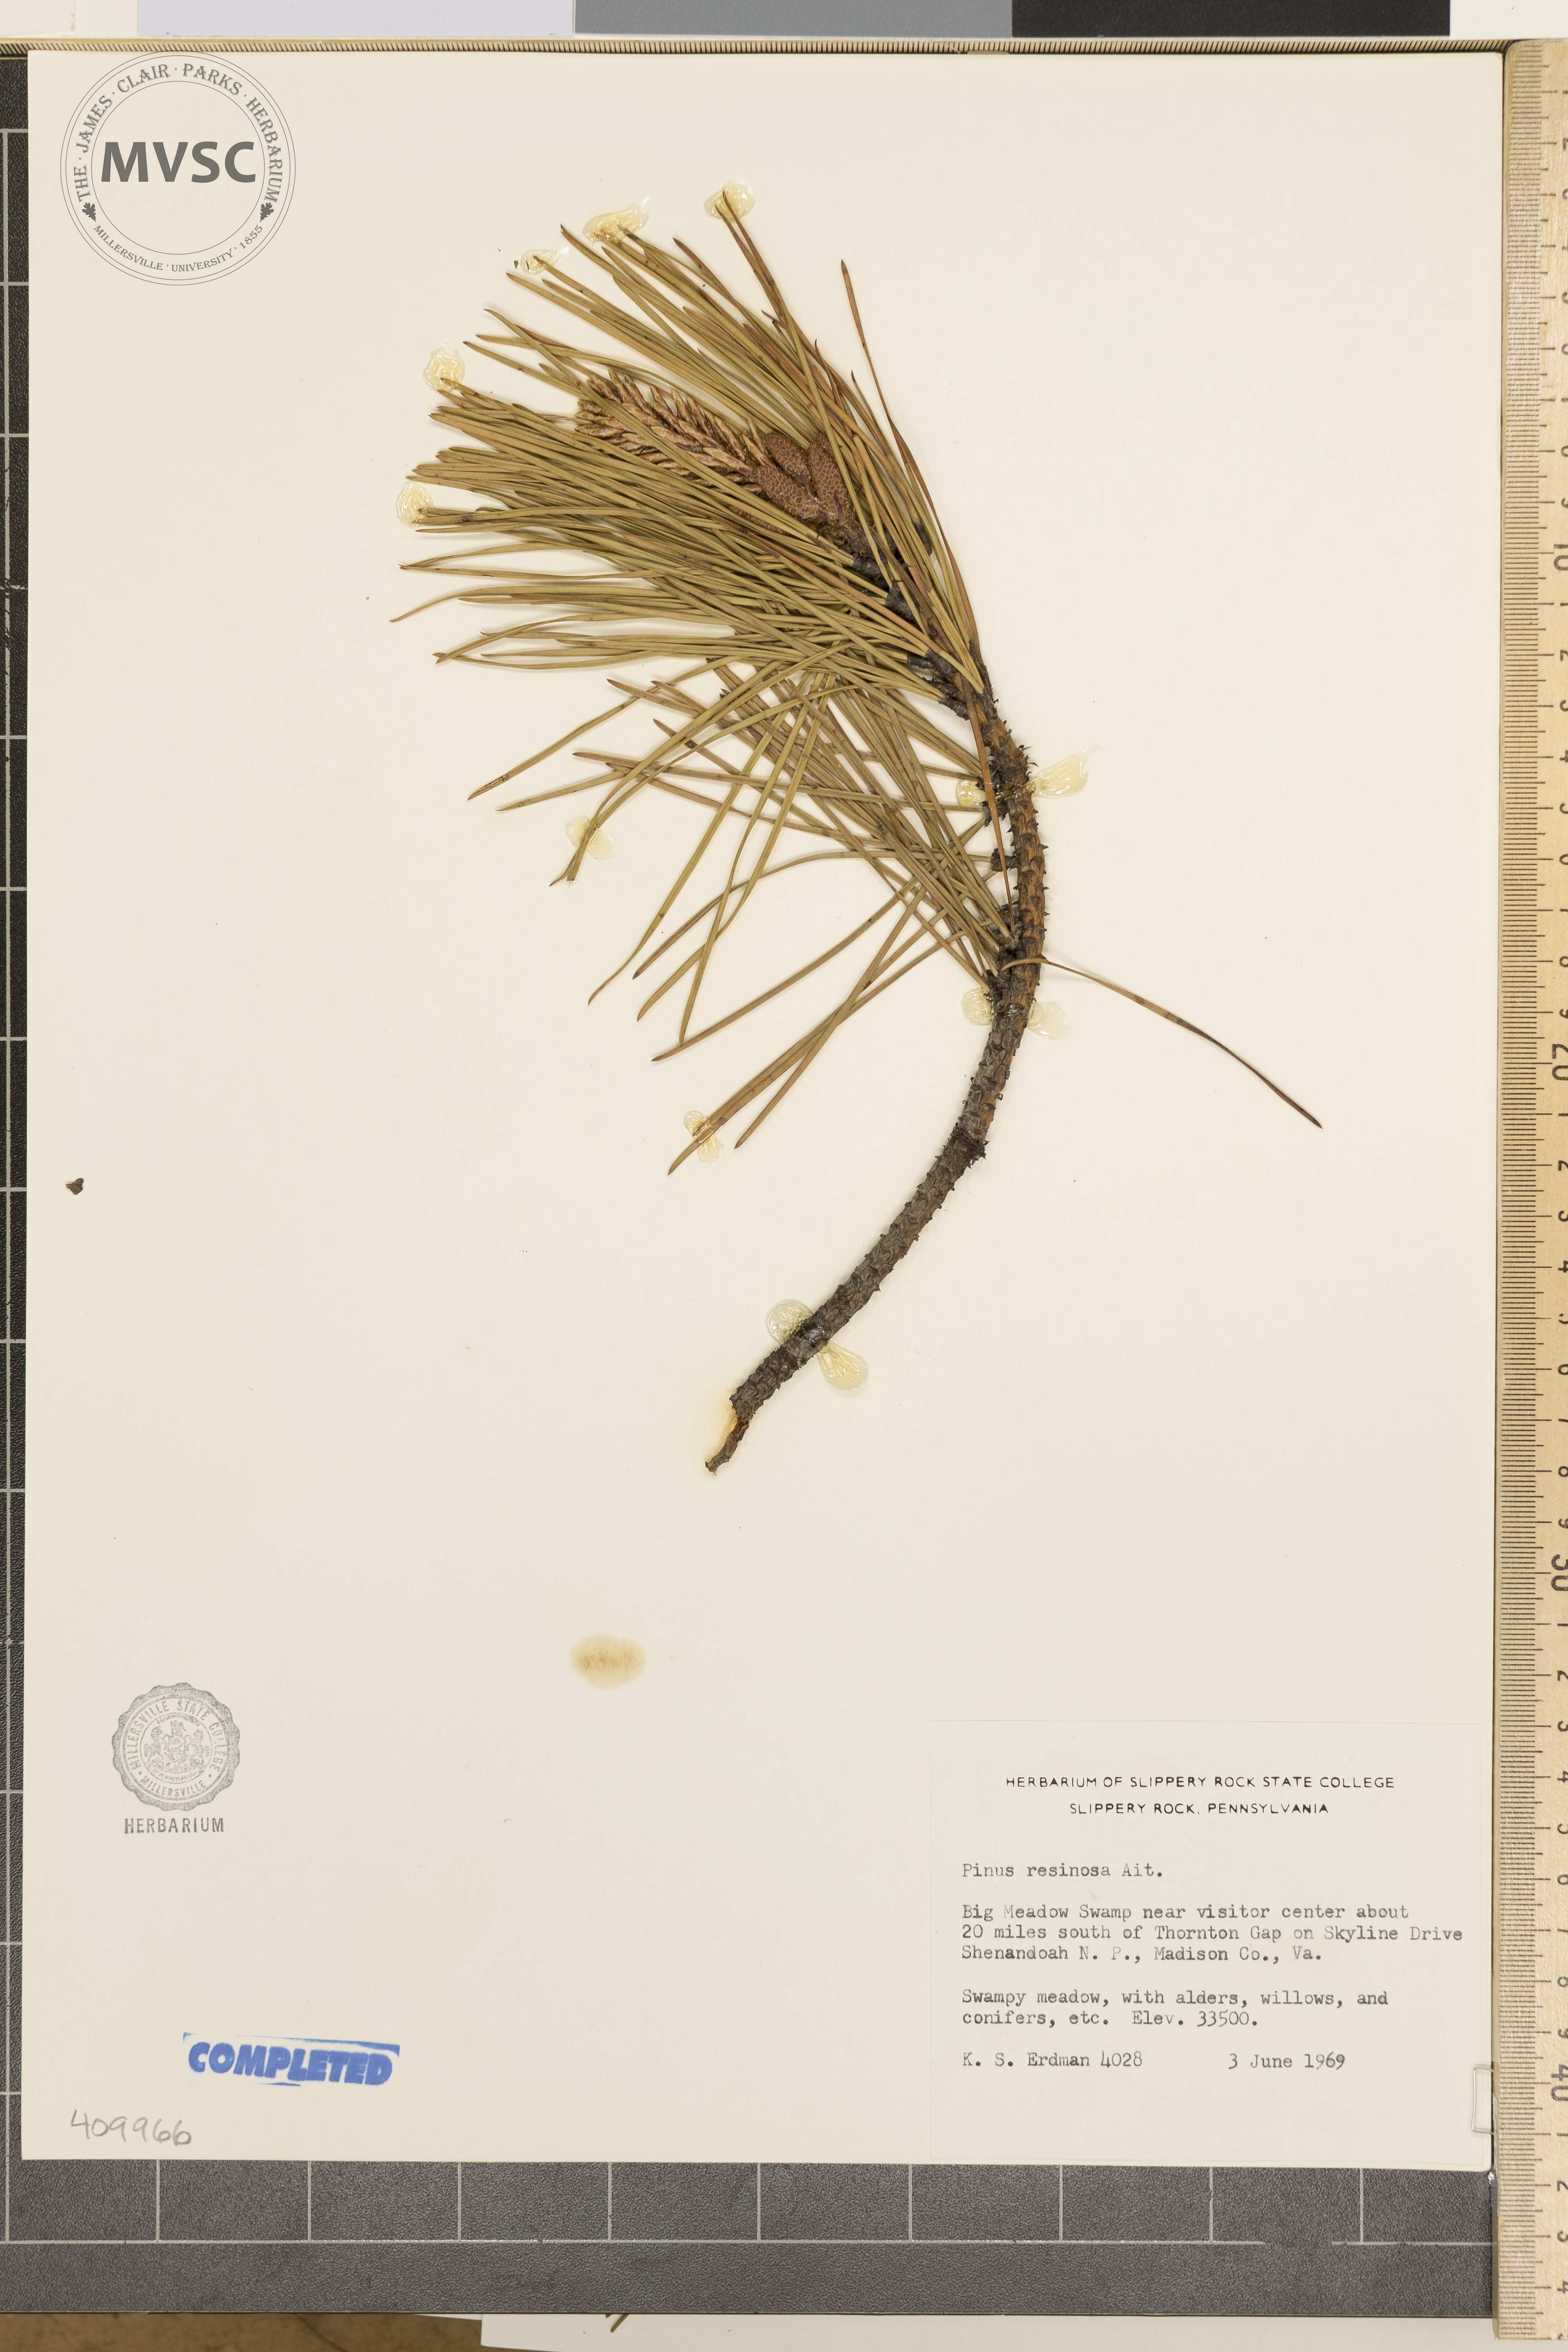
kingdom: Plantae
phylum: Tracheophyta
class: Pinopsida
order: Pinales
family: Pinaceae
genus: Pinus
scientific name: Pinus resinosa
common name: Norway pine
